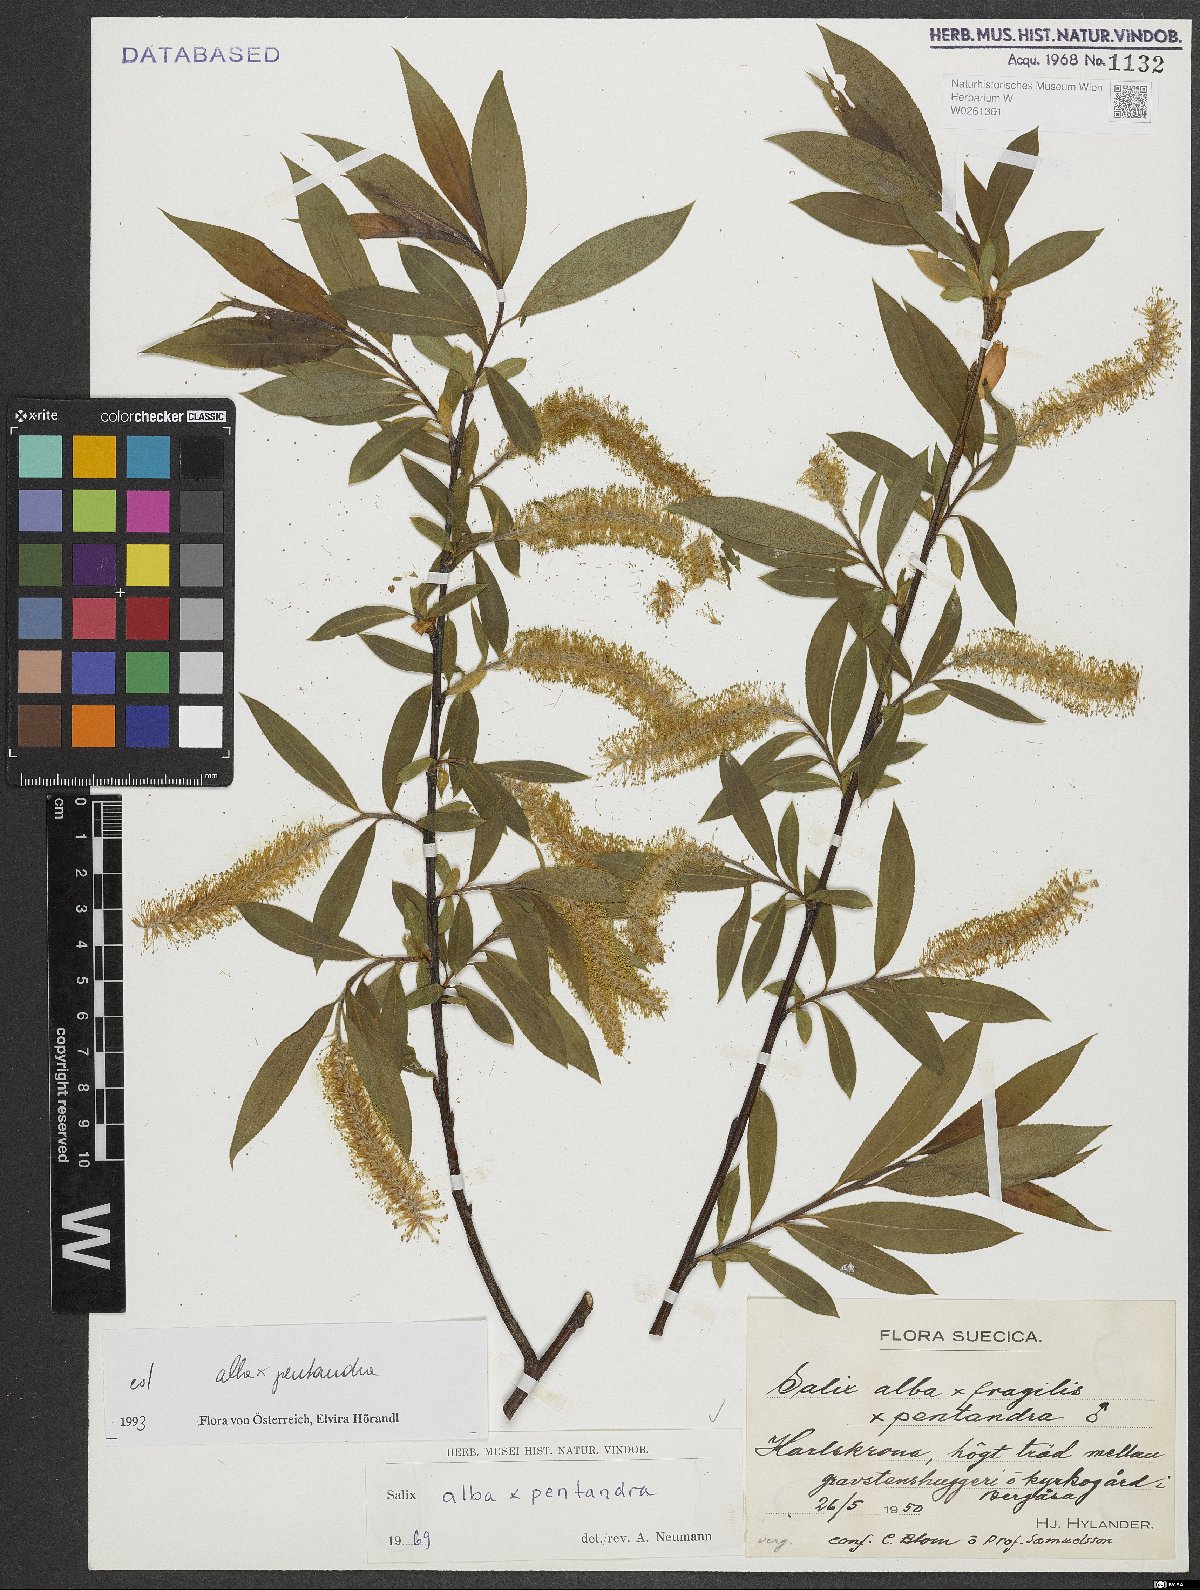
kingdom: Plantae
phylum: Tracheophyta
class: Magnoliopsida
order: Malpighiales
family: Salicaceae
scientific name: Salicaceae
